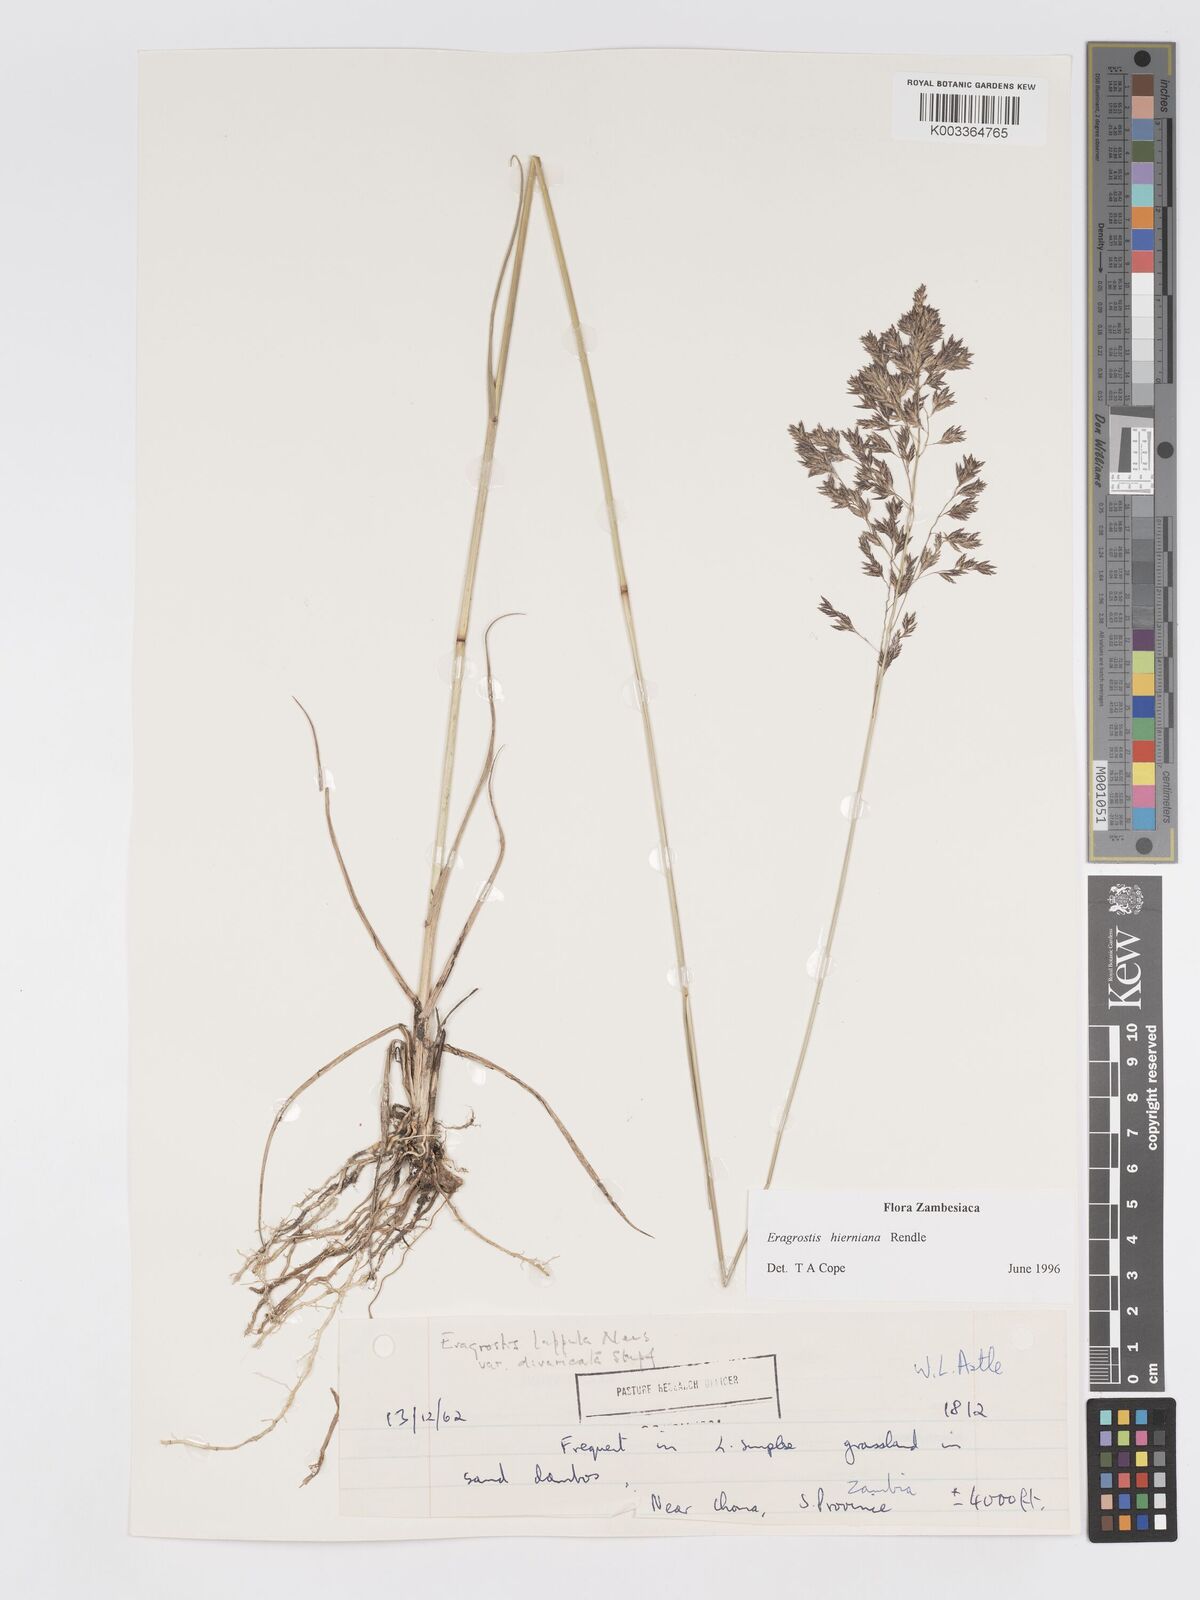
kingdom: Plantae
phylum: Tracheophyta
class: Liliopsida
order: Poales
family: Poaceae
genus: Eragrostis
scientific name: Eragrostis hierniana
